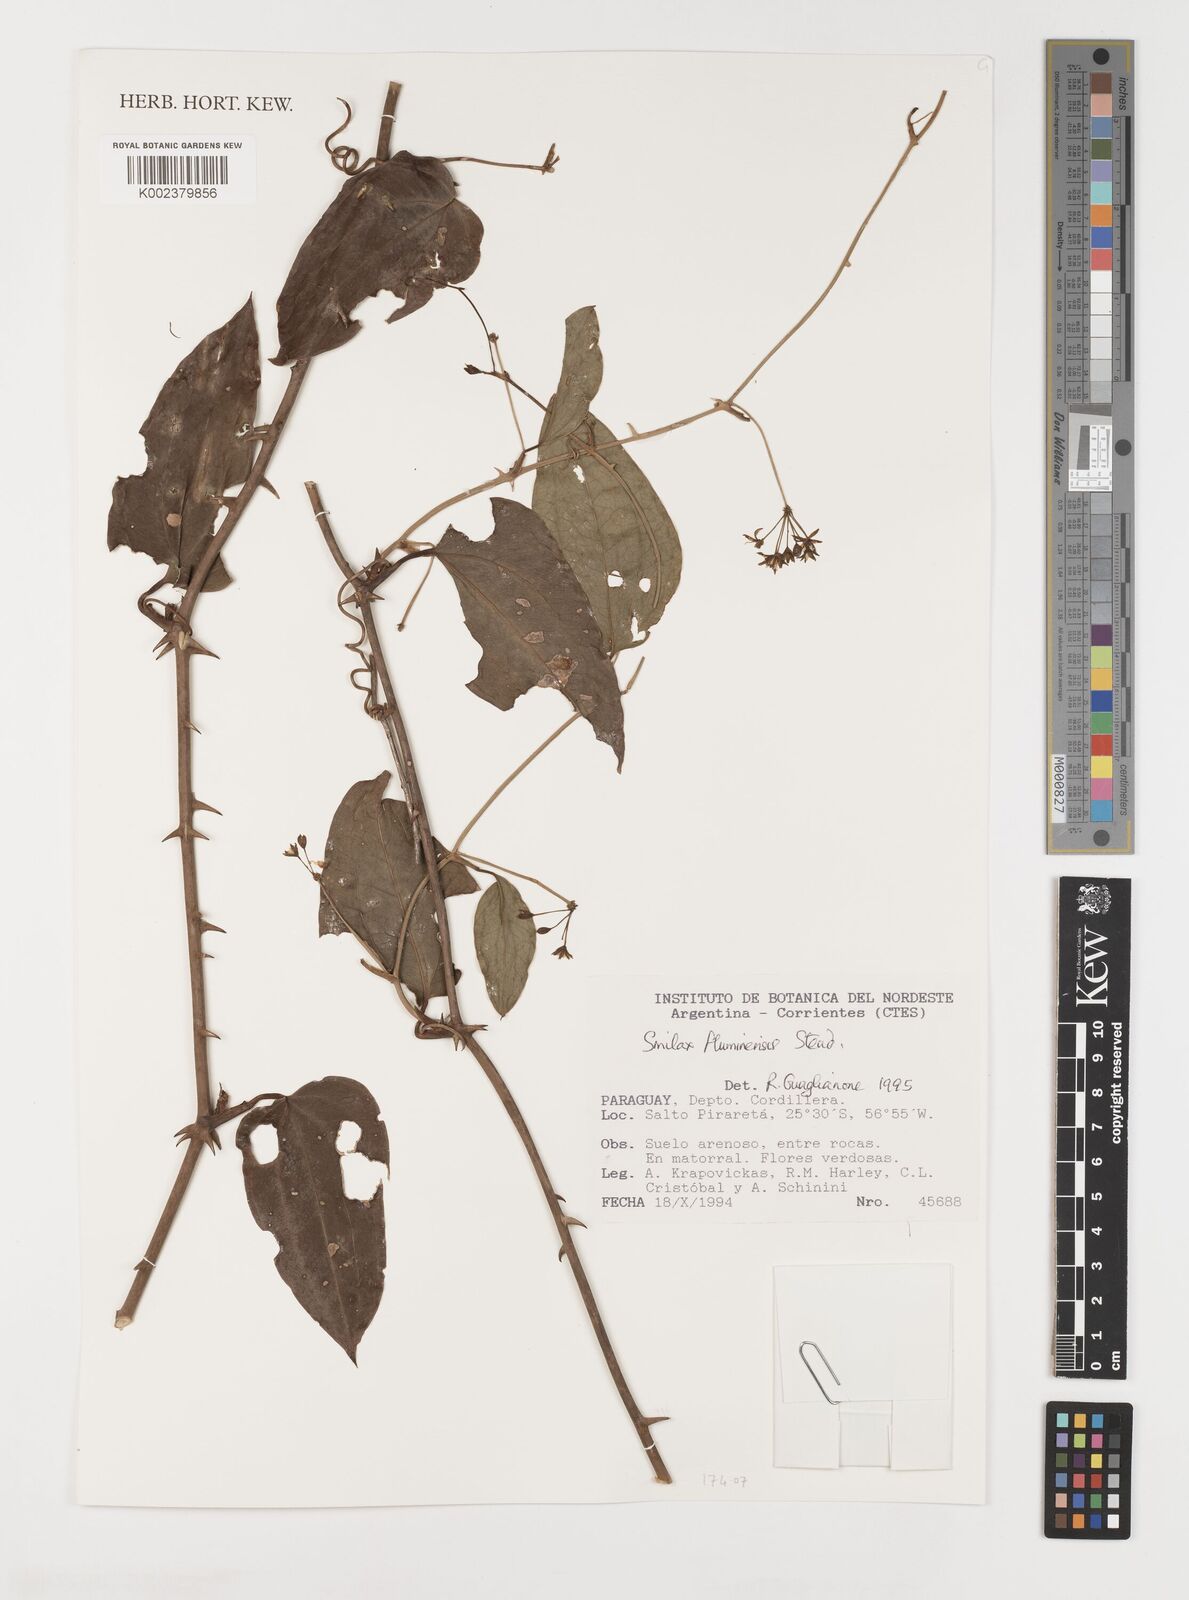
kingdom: Plantae
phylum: Tracheophyta
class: Liliopsida
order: Liliales
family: Smilacaceae
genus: Smilax
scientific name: Smilax fluminensis
